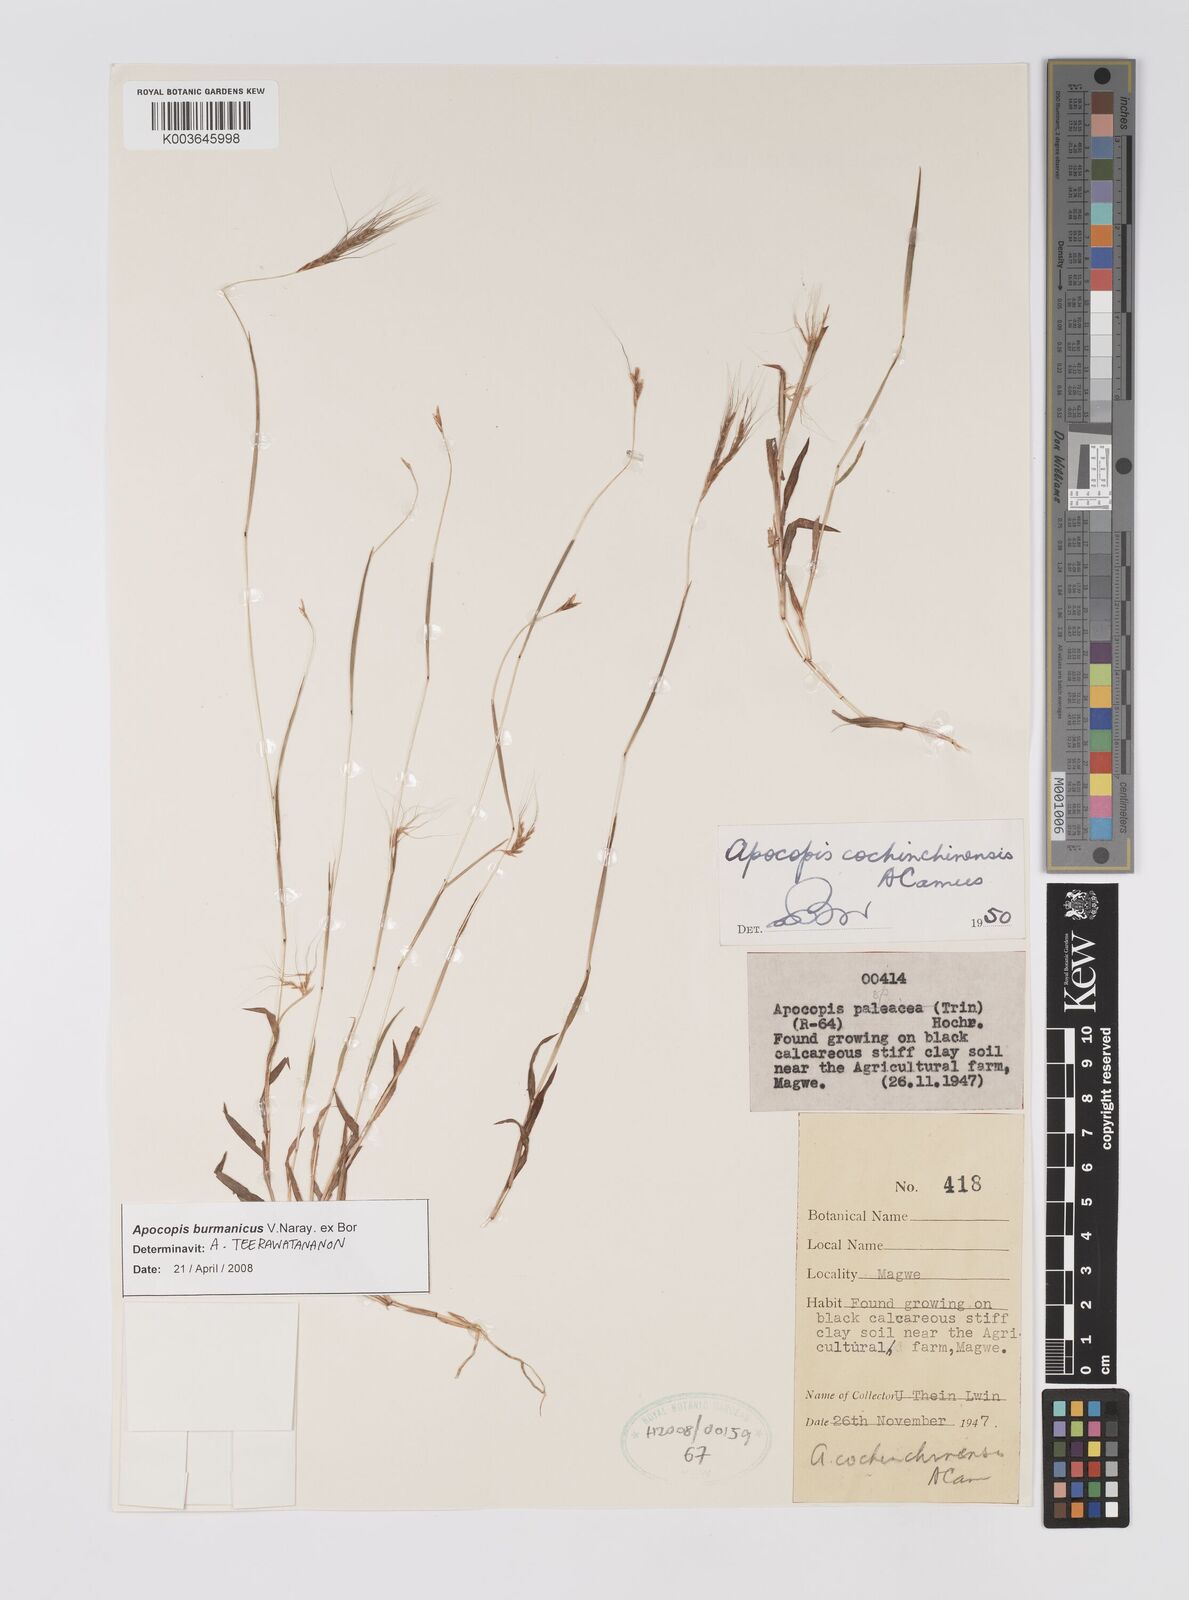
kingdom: Plantae
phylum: Tracheophyta
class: Liliopsida
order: Poales
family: Poaceae
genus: Apocopis
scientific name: Apocopis burmanicus
